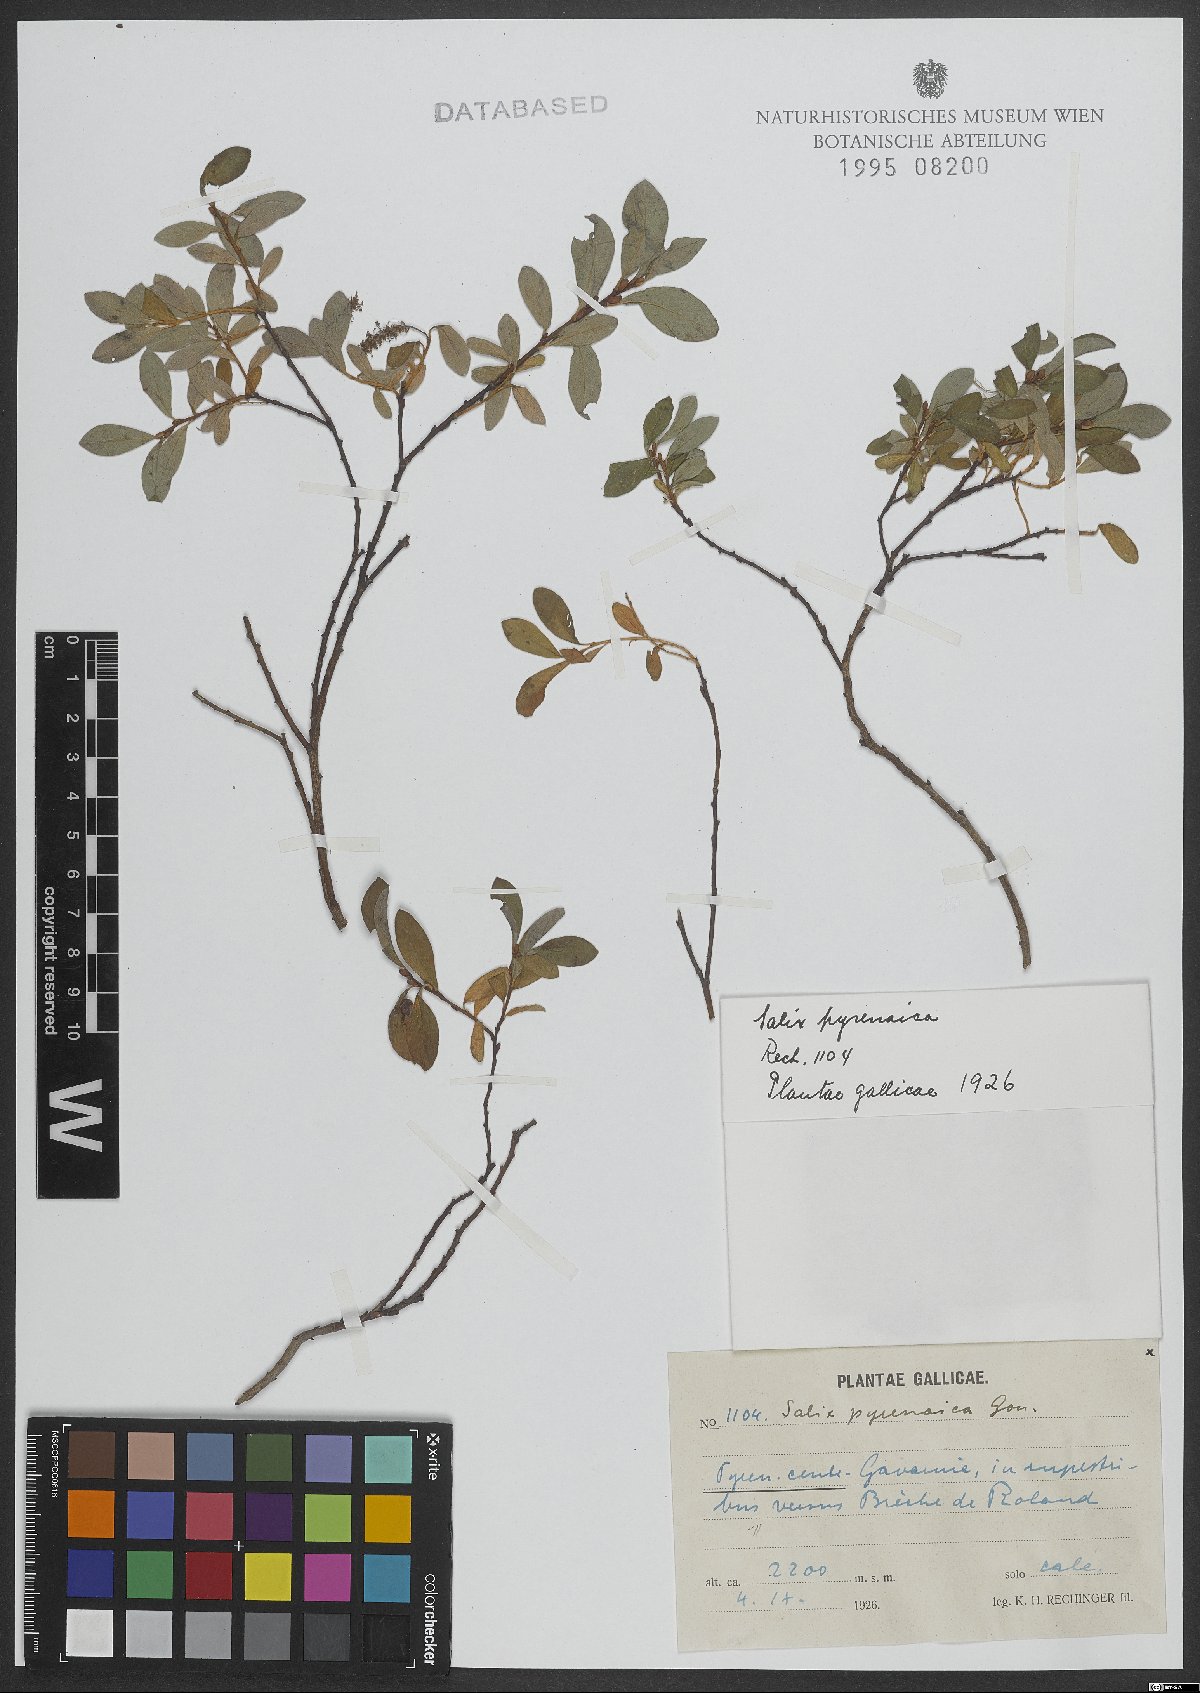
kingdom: Plantae
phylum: Tracheophyta
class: Magnoliopsida
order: Malpighiales
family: Salicaceae
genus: Salix
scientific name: Salix pyrenaica
